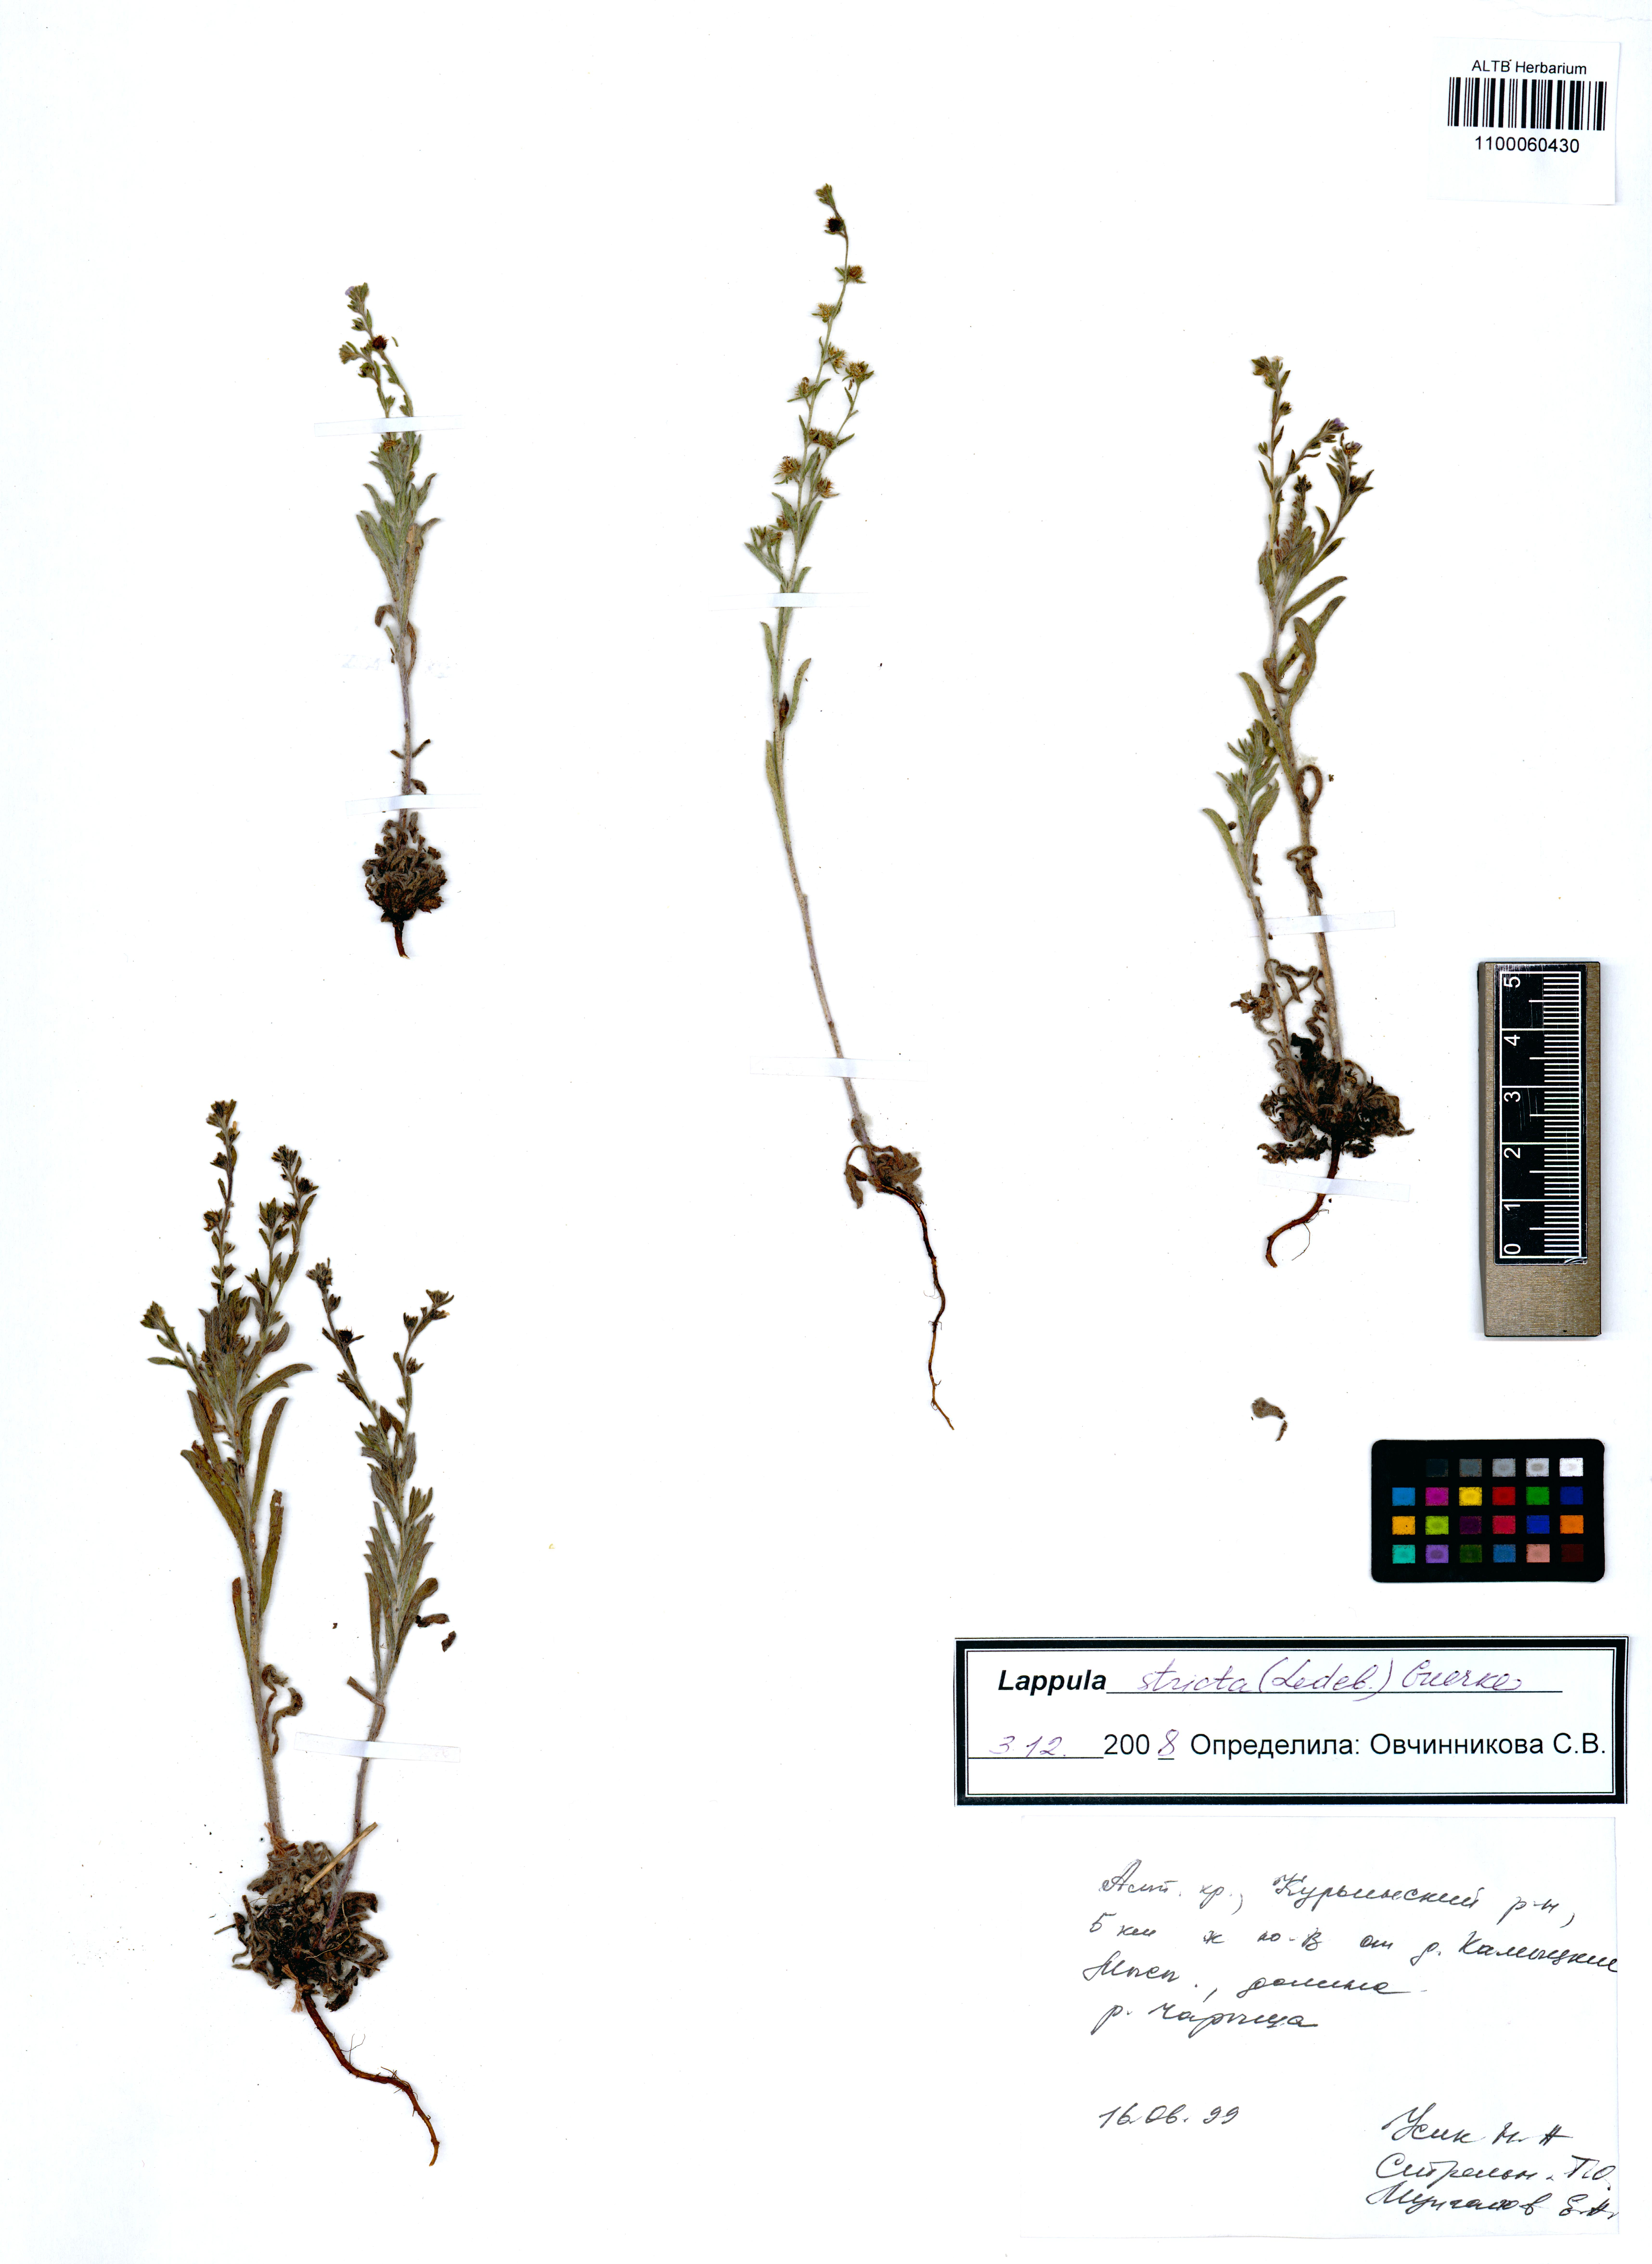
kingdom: Plantae
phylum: Tracheophyta
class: Magnoliopsida
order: Boraginales
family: Boraginaceae
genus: Lappula
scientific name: Lappula stricta
